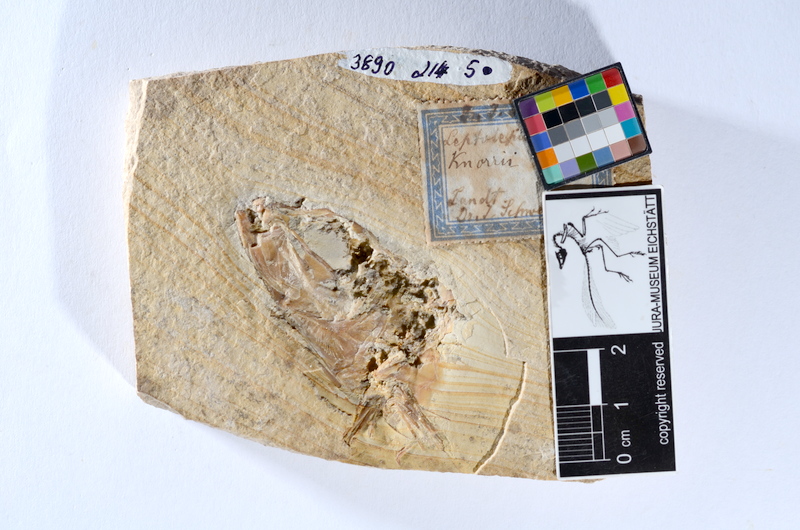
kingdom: Animalia
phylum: Chordata
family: Ascalaboidae
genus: Tharsis
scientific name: Tharsis dubius
